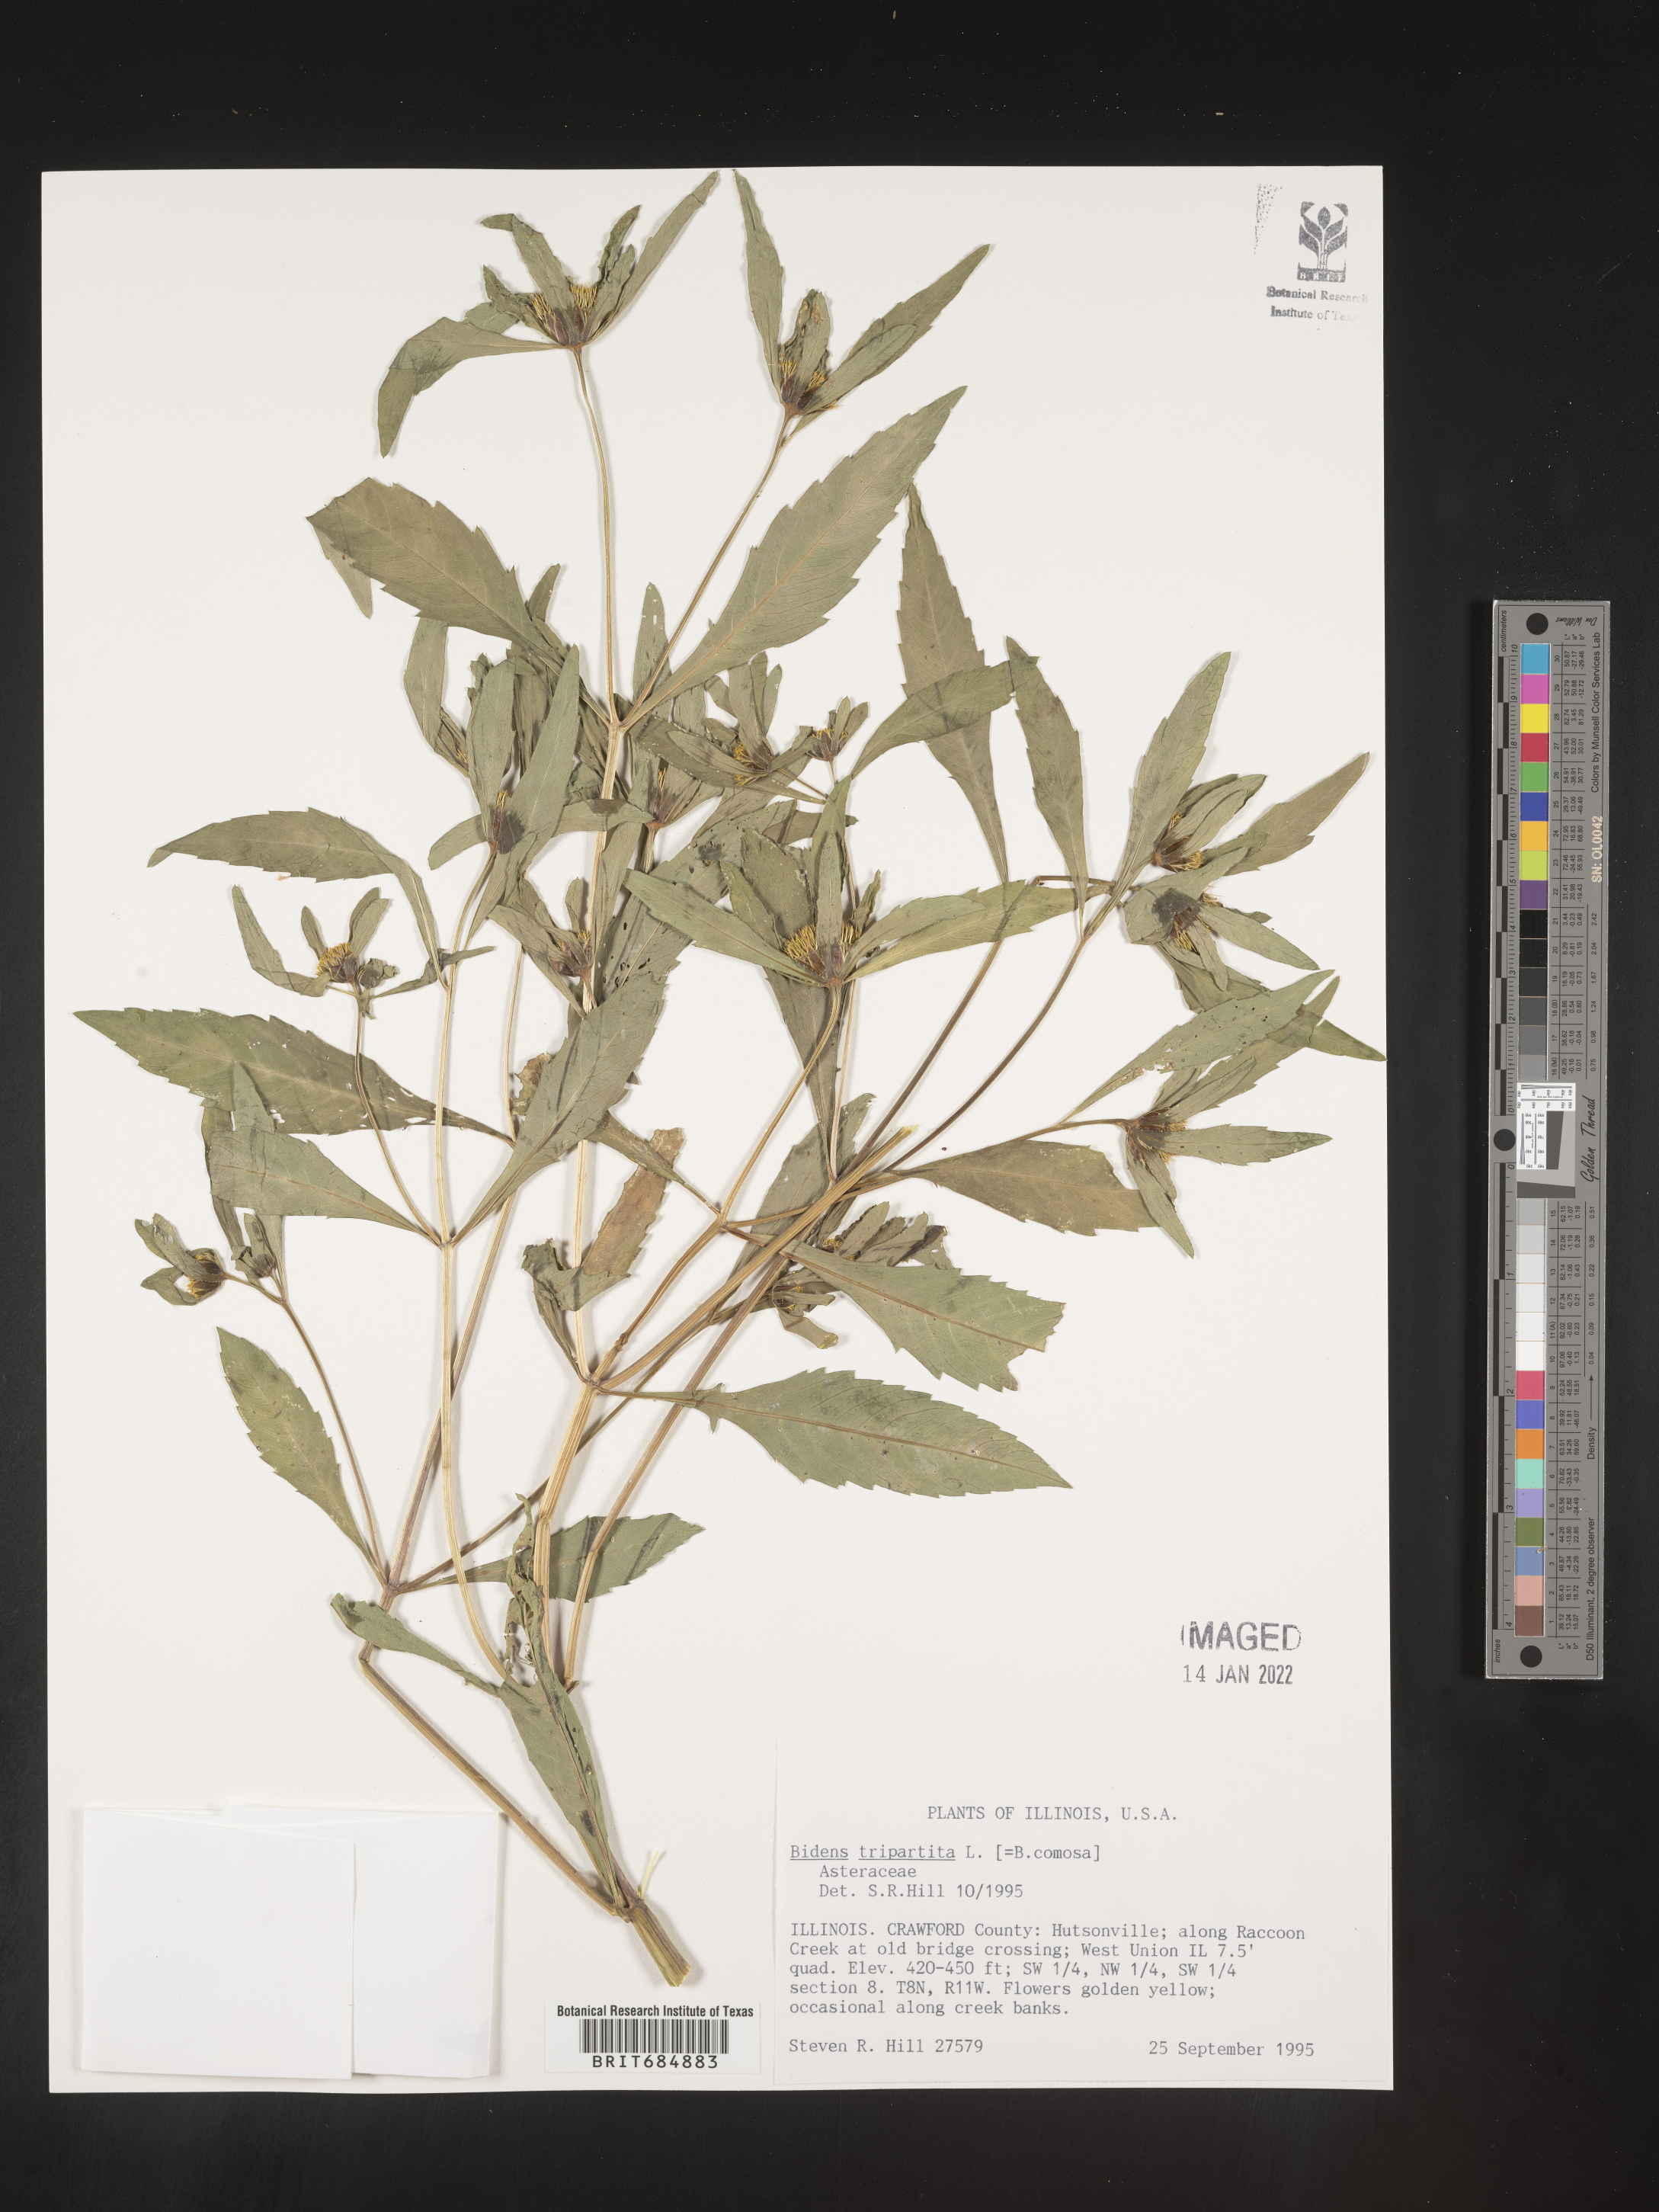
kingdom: Plantae
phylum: Tracheophyta
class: Magnoliopsida
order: Asterales
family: Asteraceae
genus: Bidens
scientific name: Bidens tripartita
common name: Trifid bur-marigold
